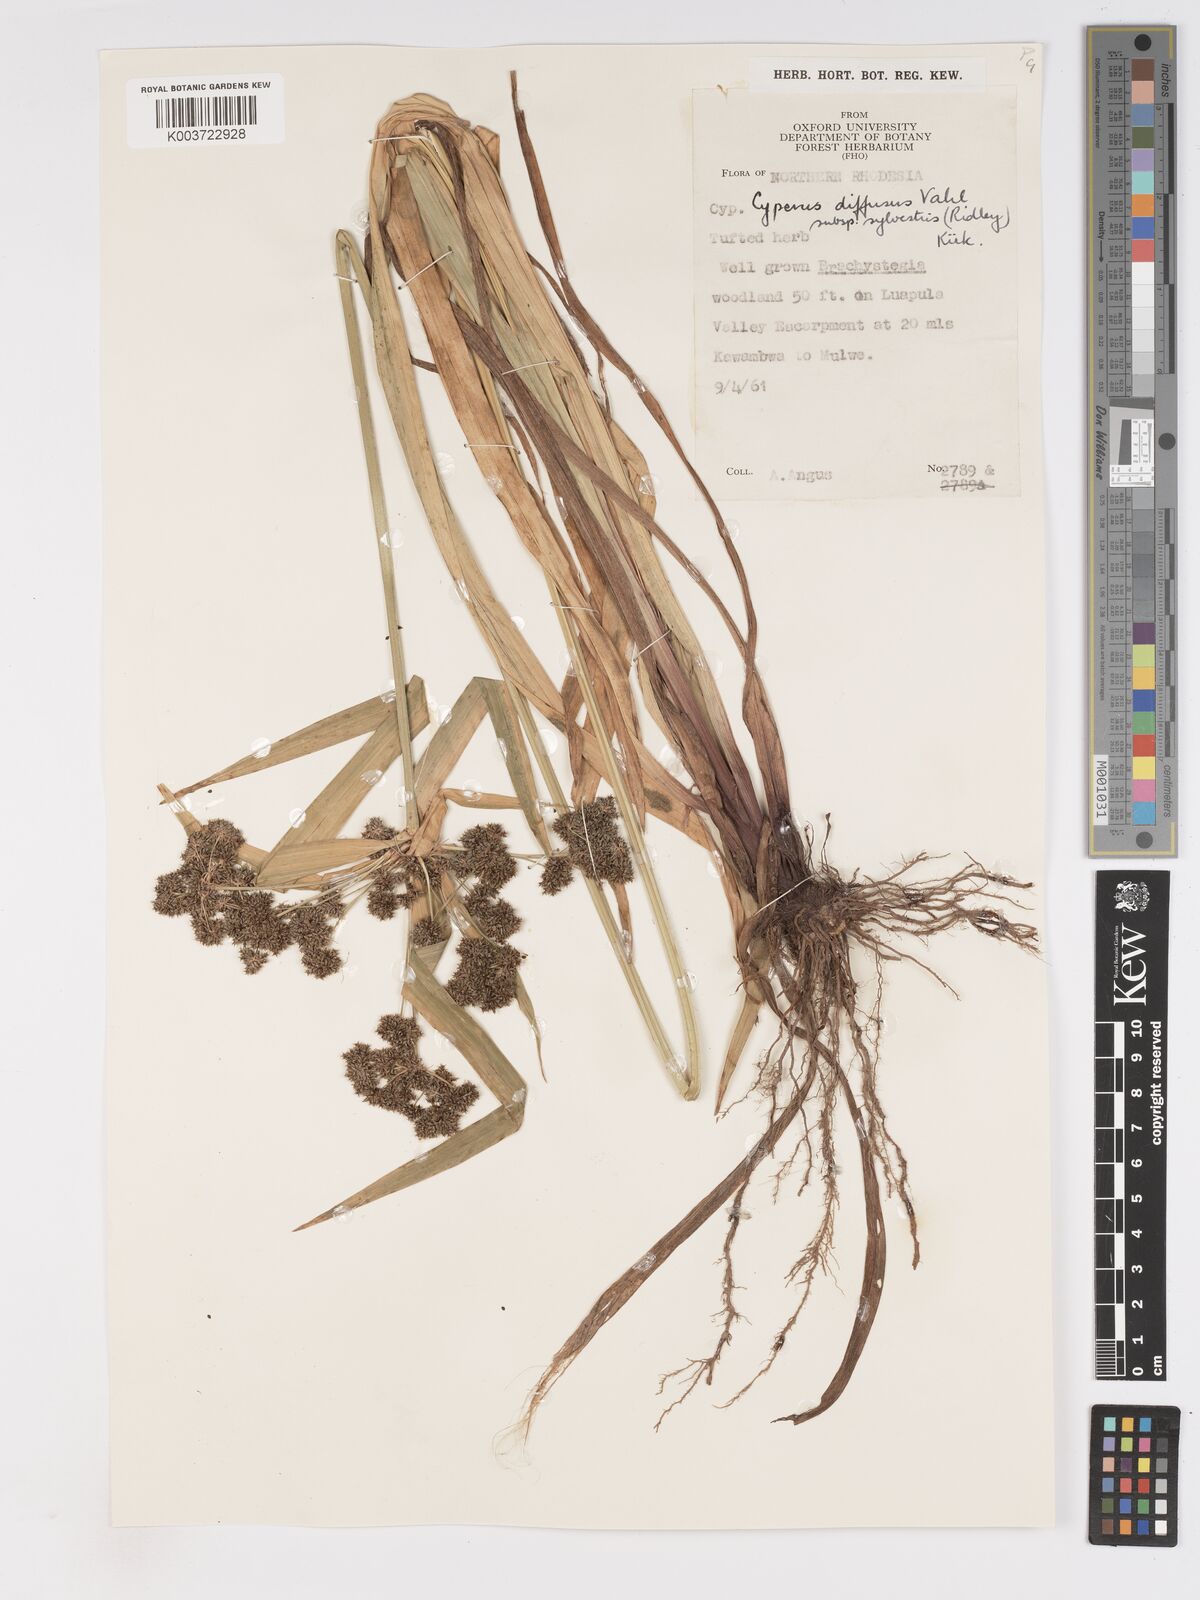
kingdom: Plantae
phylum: Tracheophyta
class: Liliopsida
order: Poales
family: Cyperaceae
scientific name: Cyperaceae
